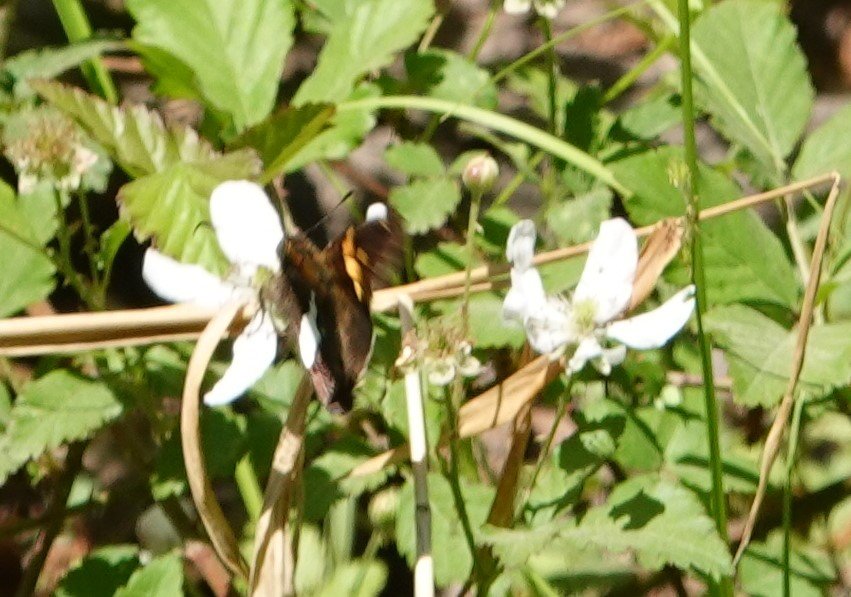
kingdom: Animalia
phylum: Arthropoda
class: Insecta
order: Lepidoptera
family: Hesperiidae
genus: Epargyreus
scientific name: Epargyreus clarus
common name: Silver-spotted Skipper
